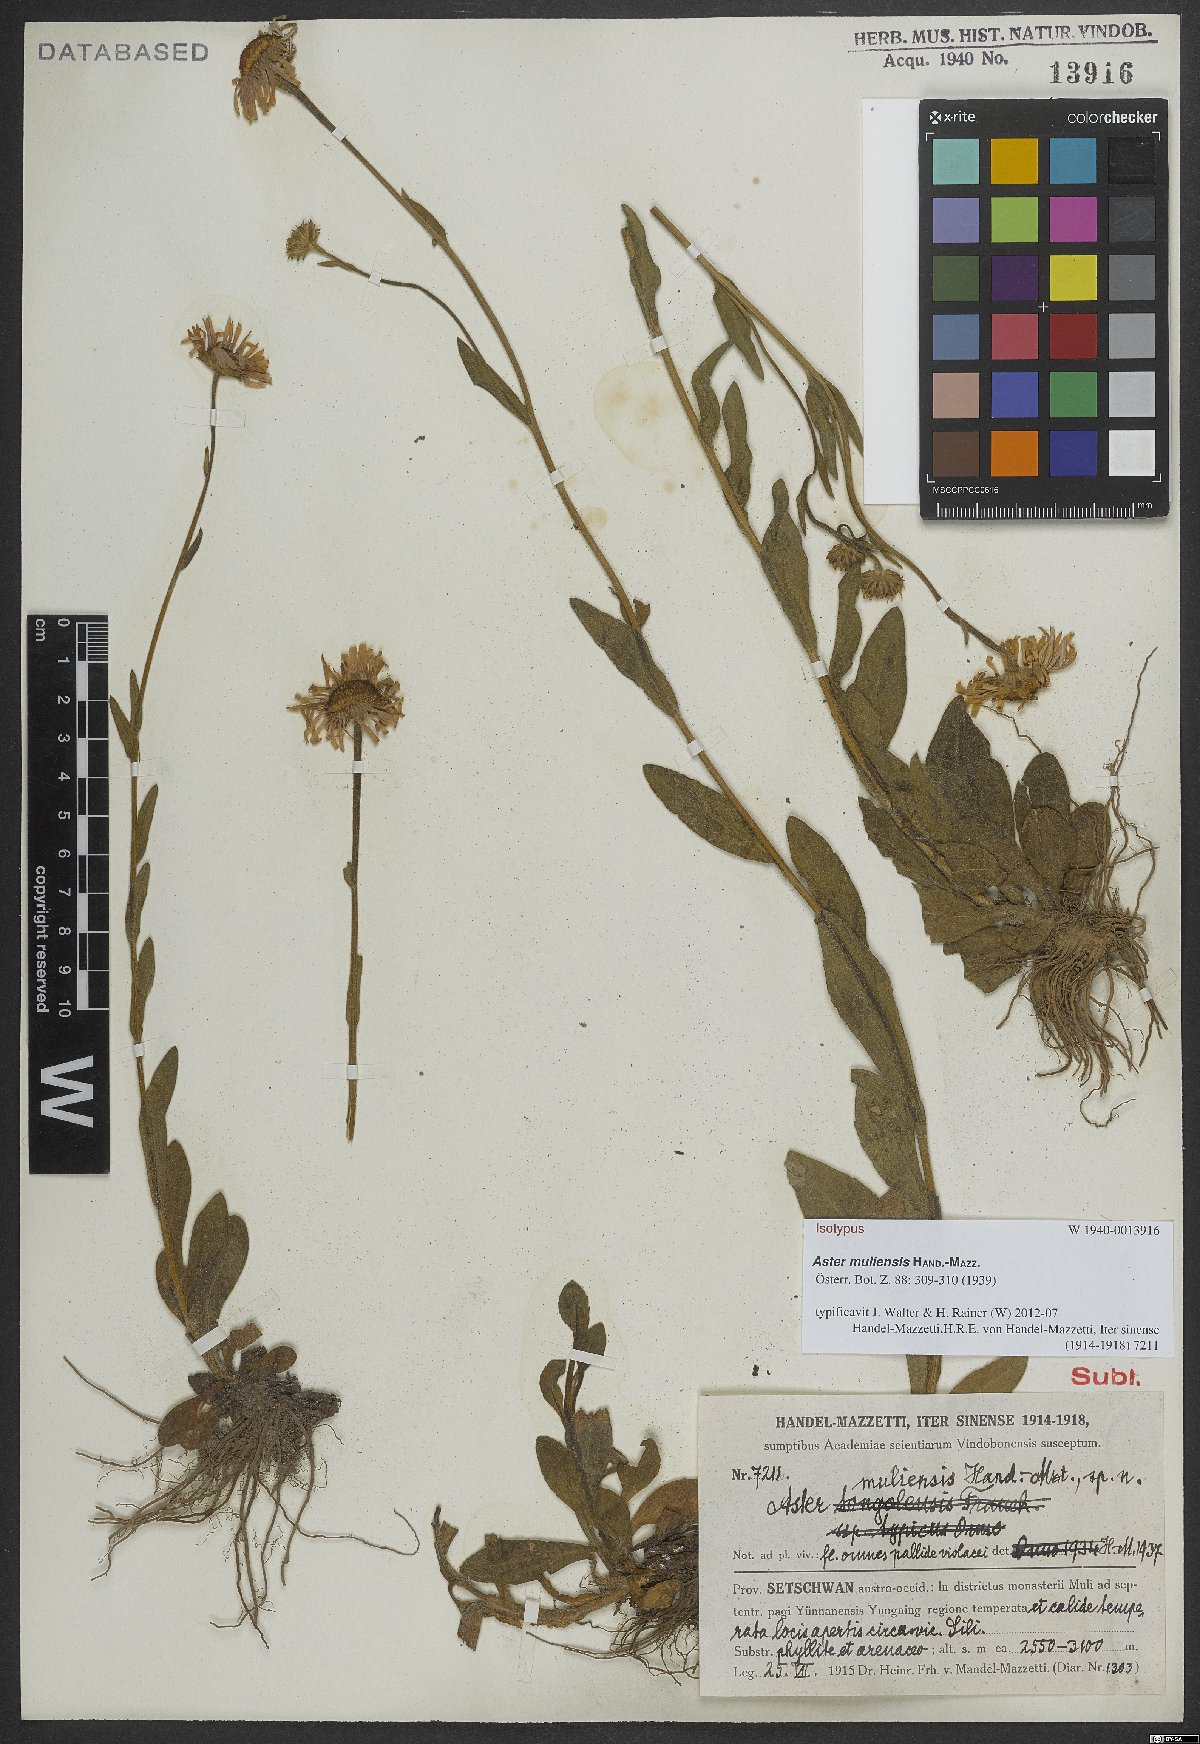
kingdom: Plantae
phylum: Tracheophyta
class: Magnoliopsida
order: Asterales
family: Asteraceae
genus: Aster
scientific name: Aster muliensis
